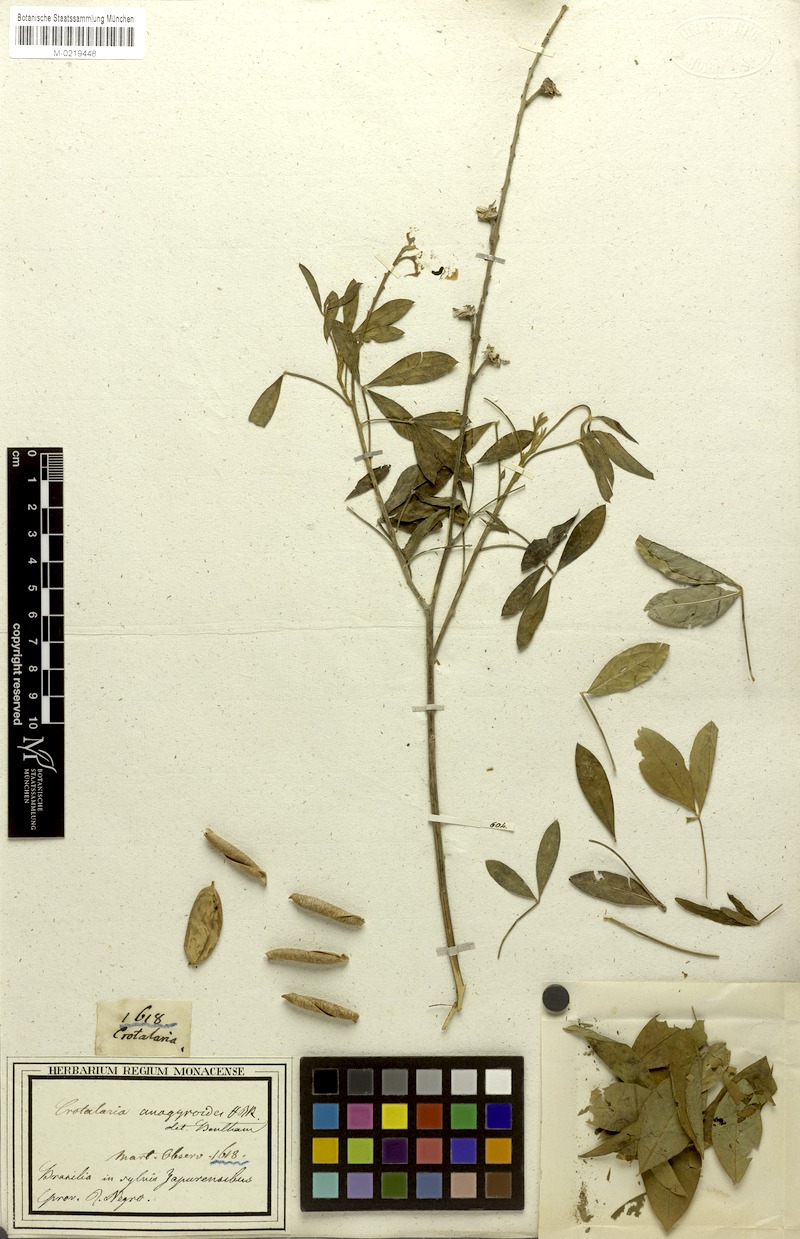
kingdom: Plantae
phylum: Tracheophyta
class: Magnoliopsida
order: Fabales
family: Fabaceae
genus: Crotalaria
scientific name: Crotalaria micans
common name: Caracas rattlebox
